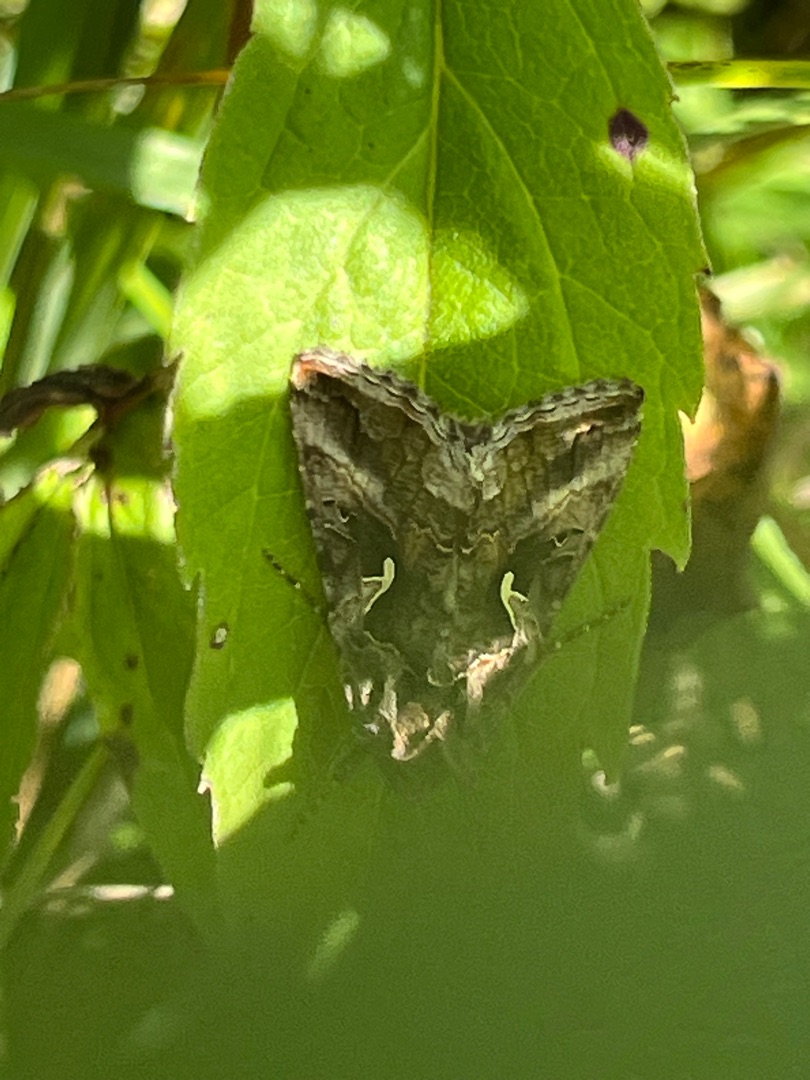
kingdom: Animalia
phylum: Arthropoda
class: Insecta
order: Lepidoptera
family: Noctuidae
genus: Autographa
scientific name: Autographa gamma
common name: Gammaugle
